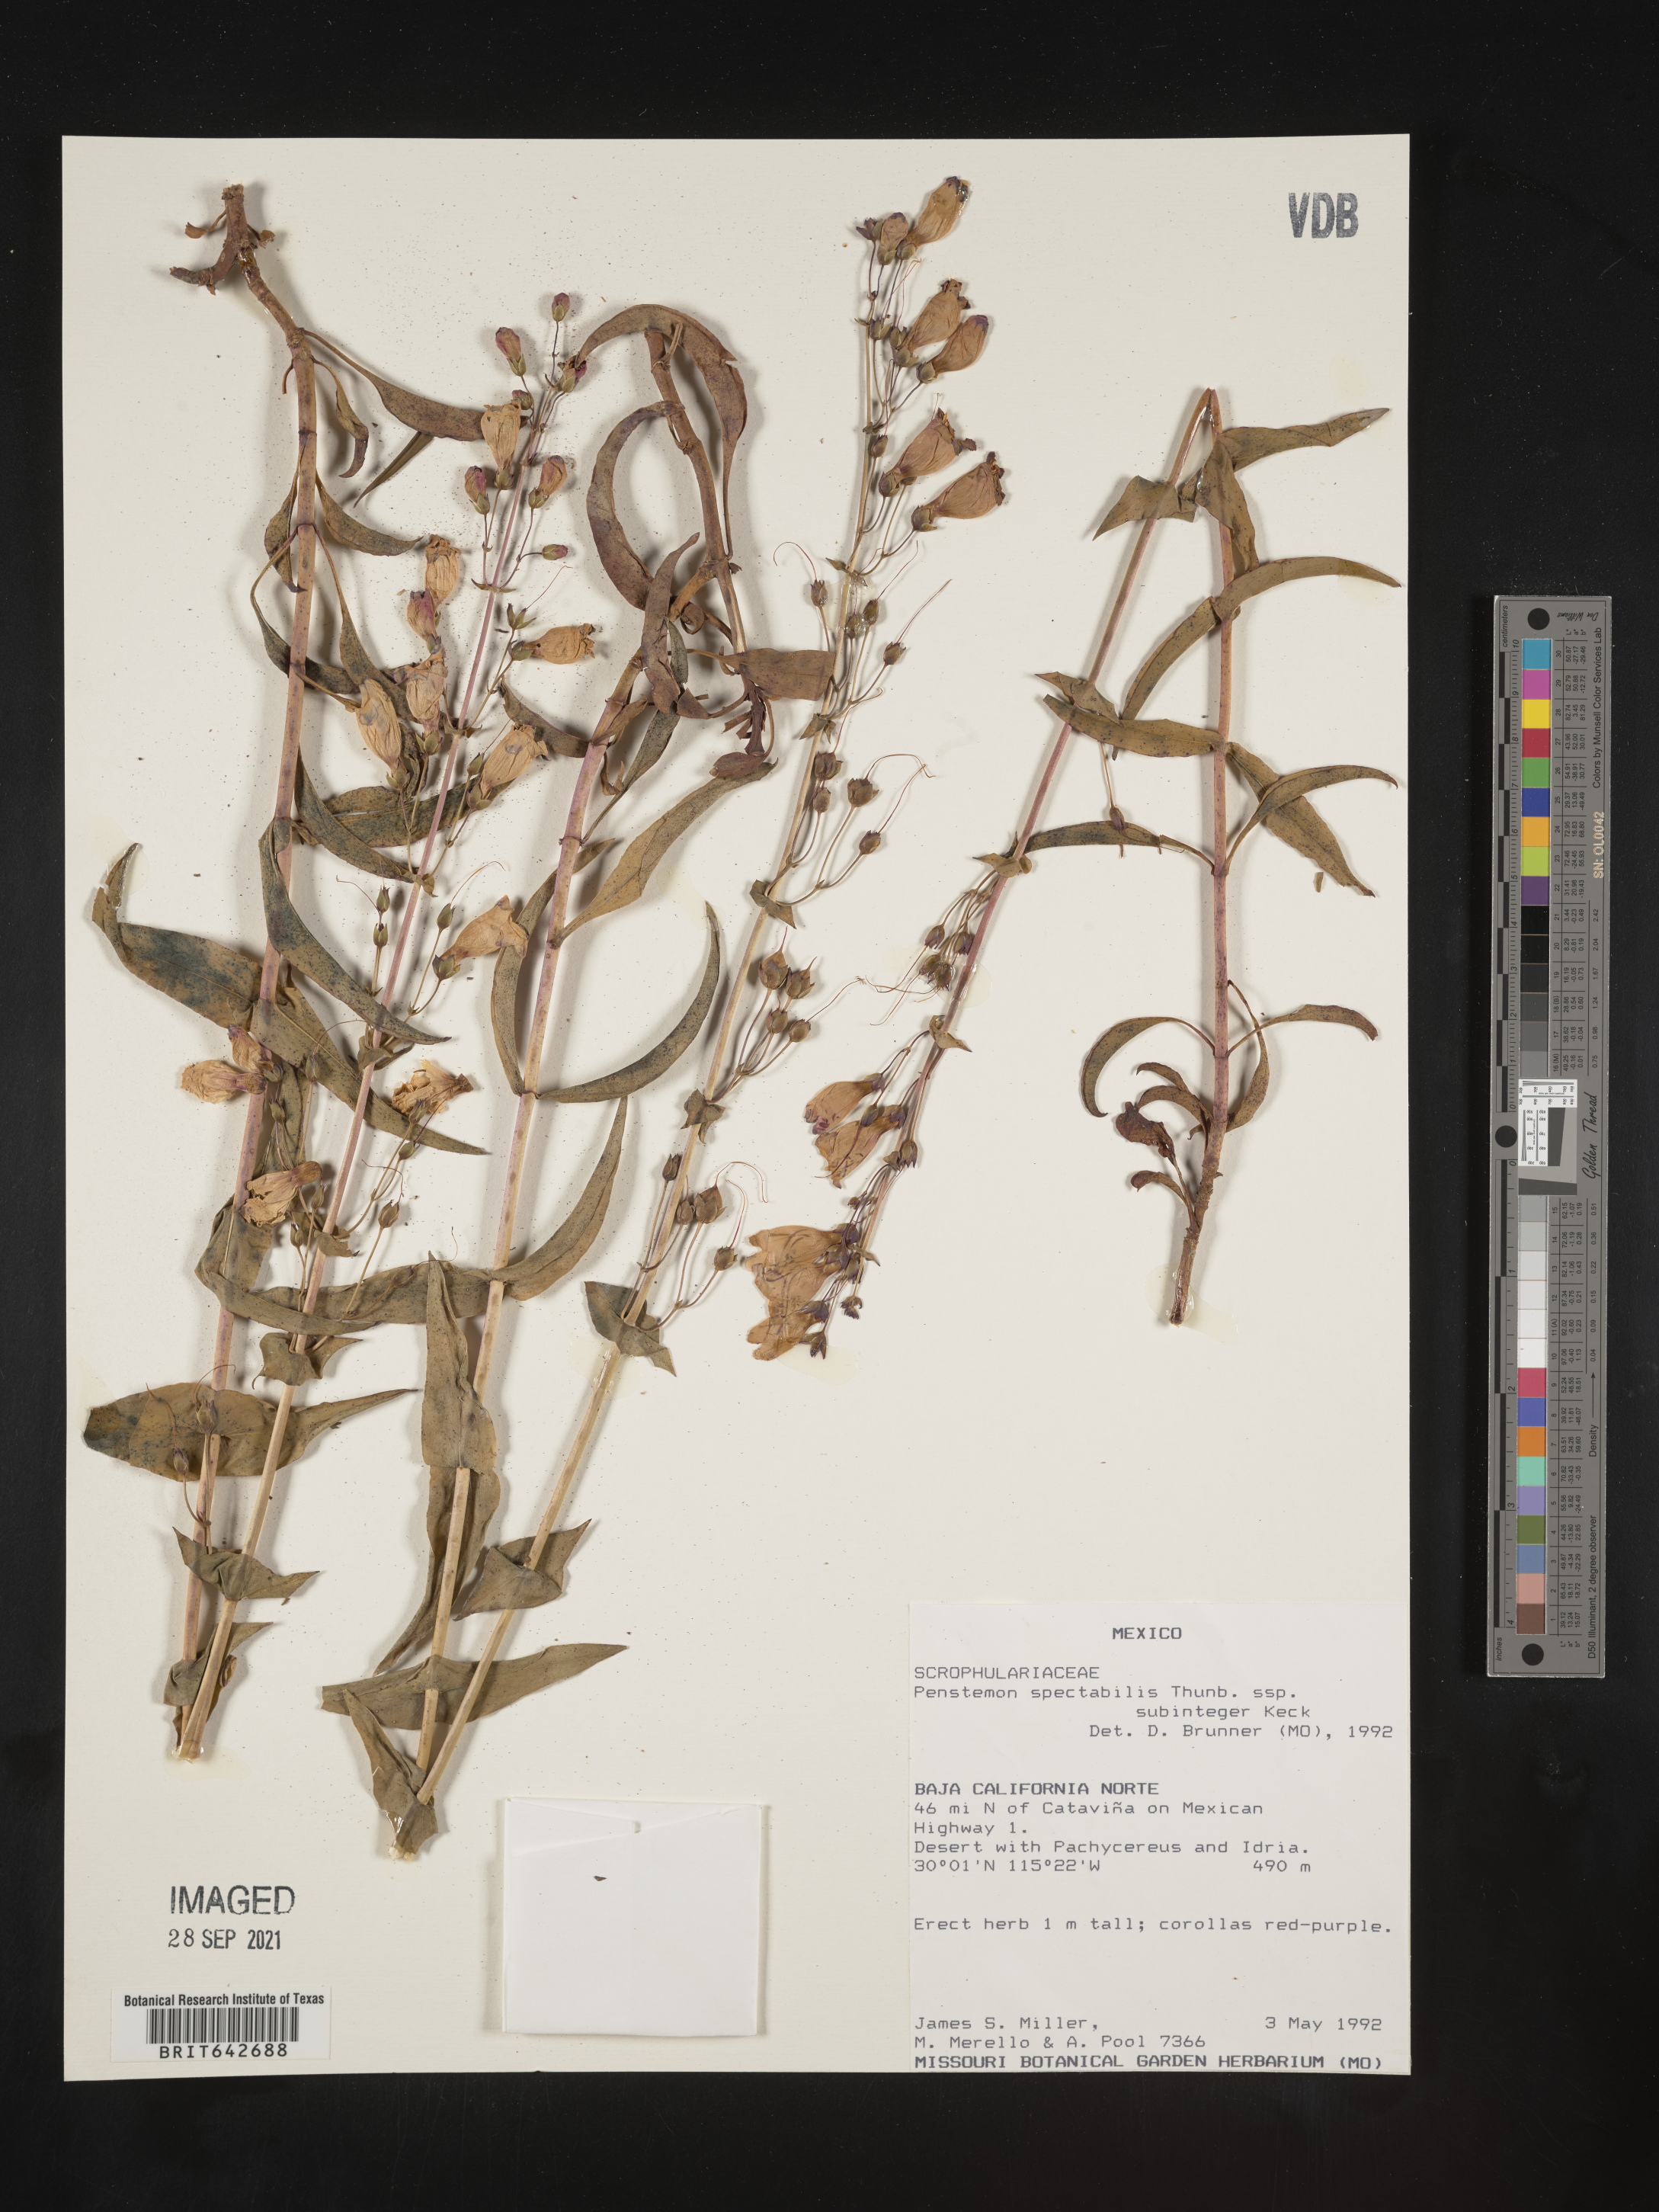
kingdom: Plantae
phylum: Tracheophyta
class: Magnoliopsida
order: Lamiales
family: Plantaginaceae
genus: Penstemon
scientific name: Penstemon
